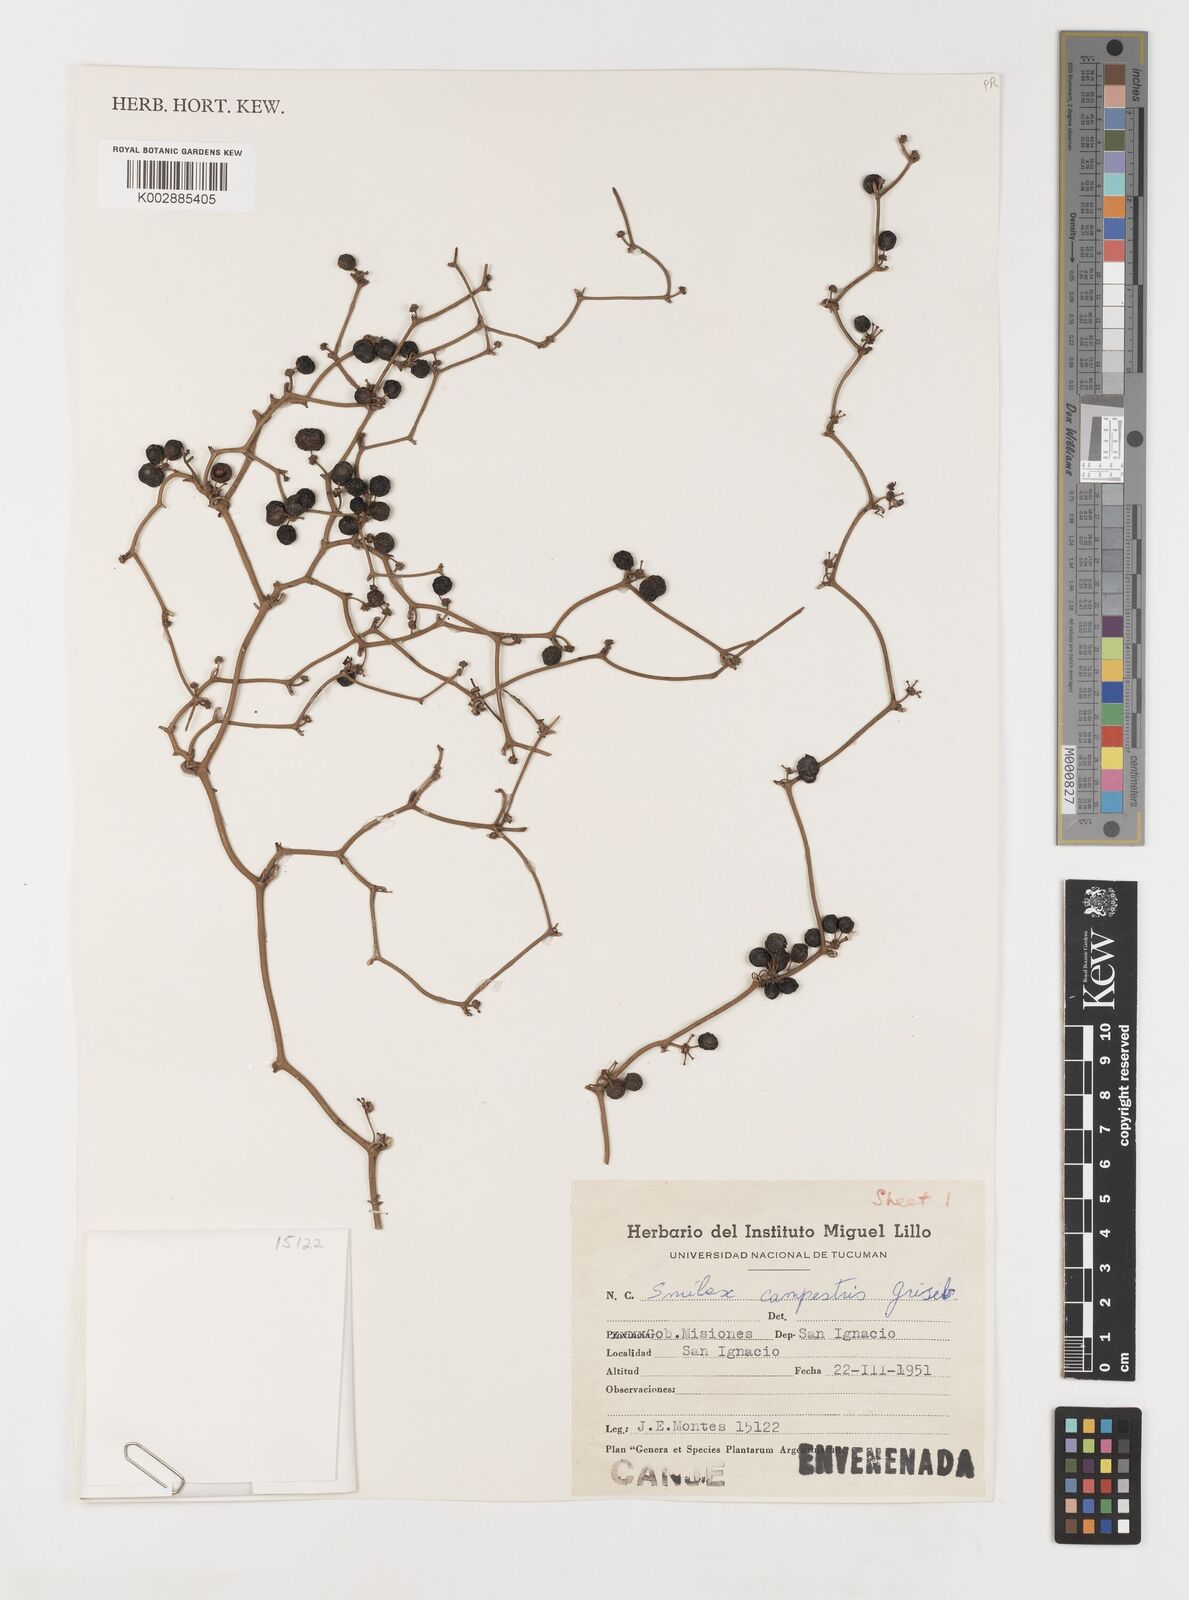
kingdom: Plantae
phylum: Tracheophyta
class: Liliopsida
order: Liliales
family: Smilacaceae
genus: Smilax
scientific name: Smilax campestris
